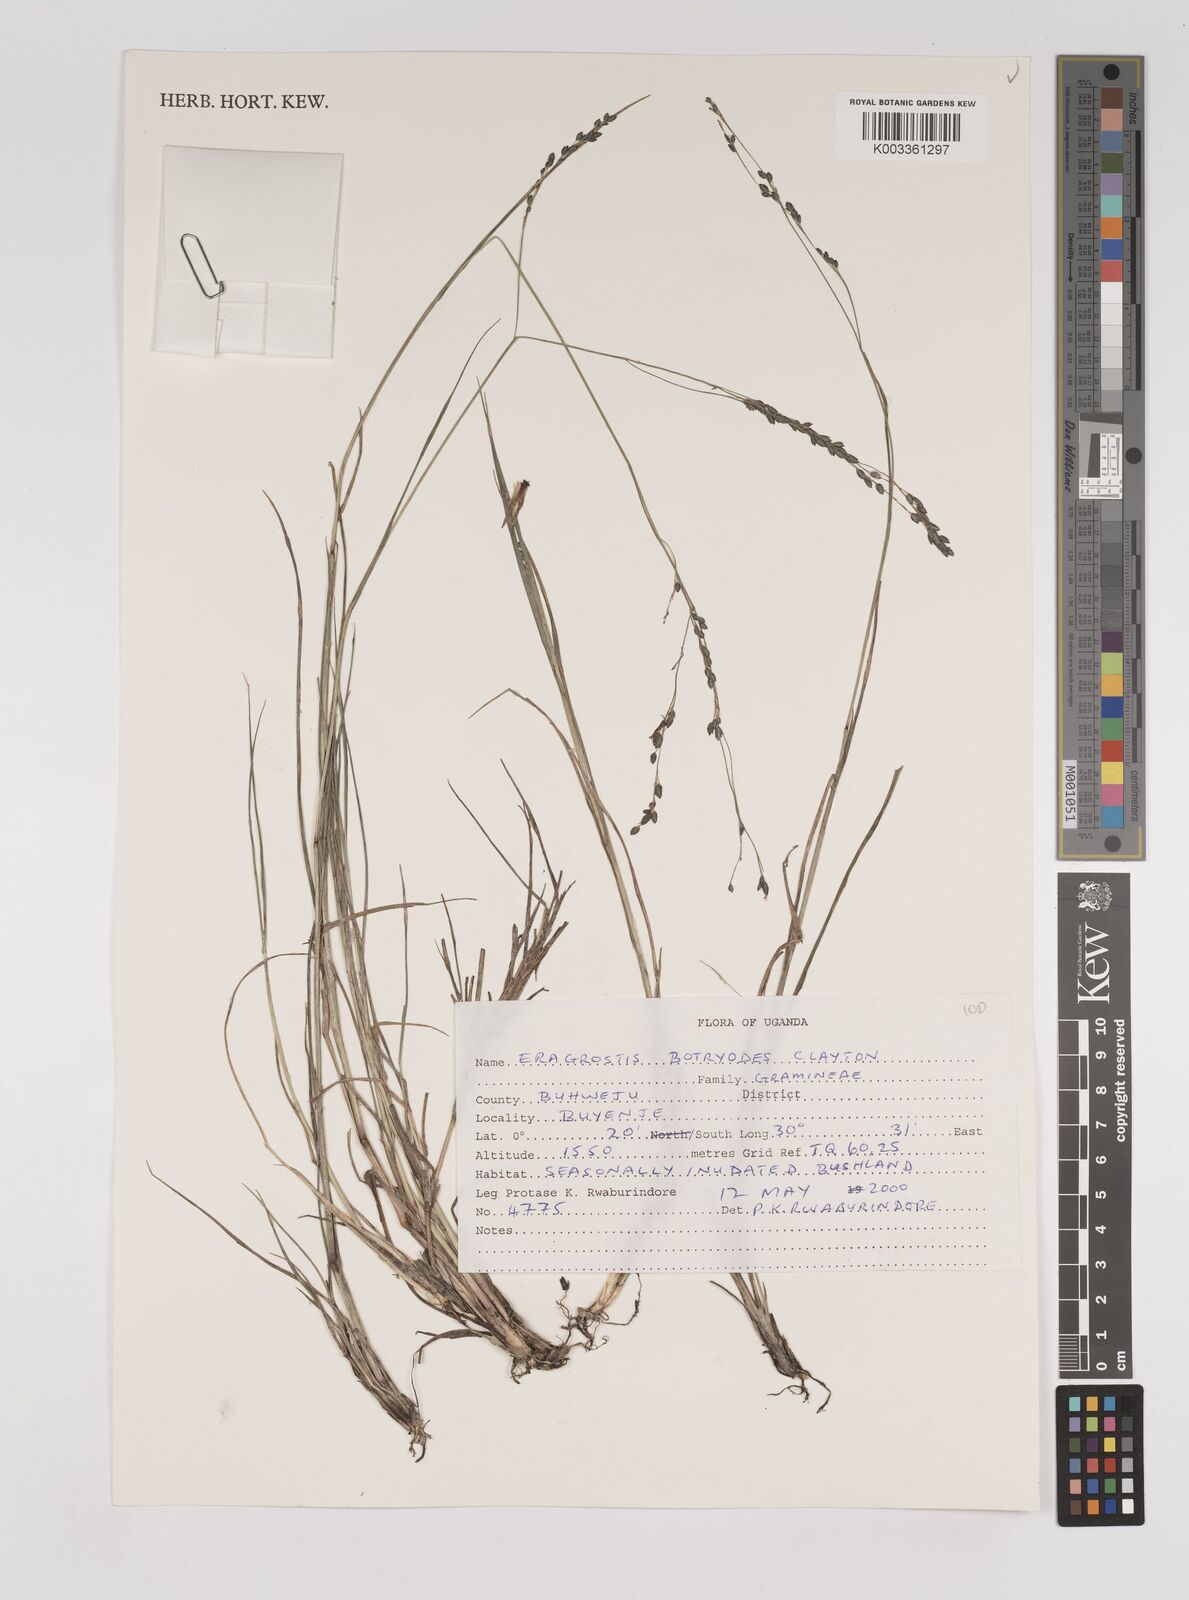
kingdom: Plantae
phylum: Tracheophyta
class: Liliopsida
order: Poales
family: Poaceae
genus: Eragrostis
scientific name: Eragrostis botryodes
